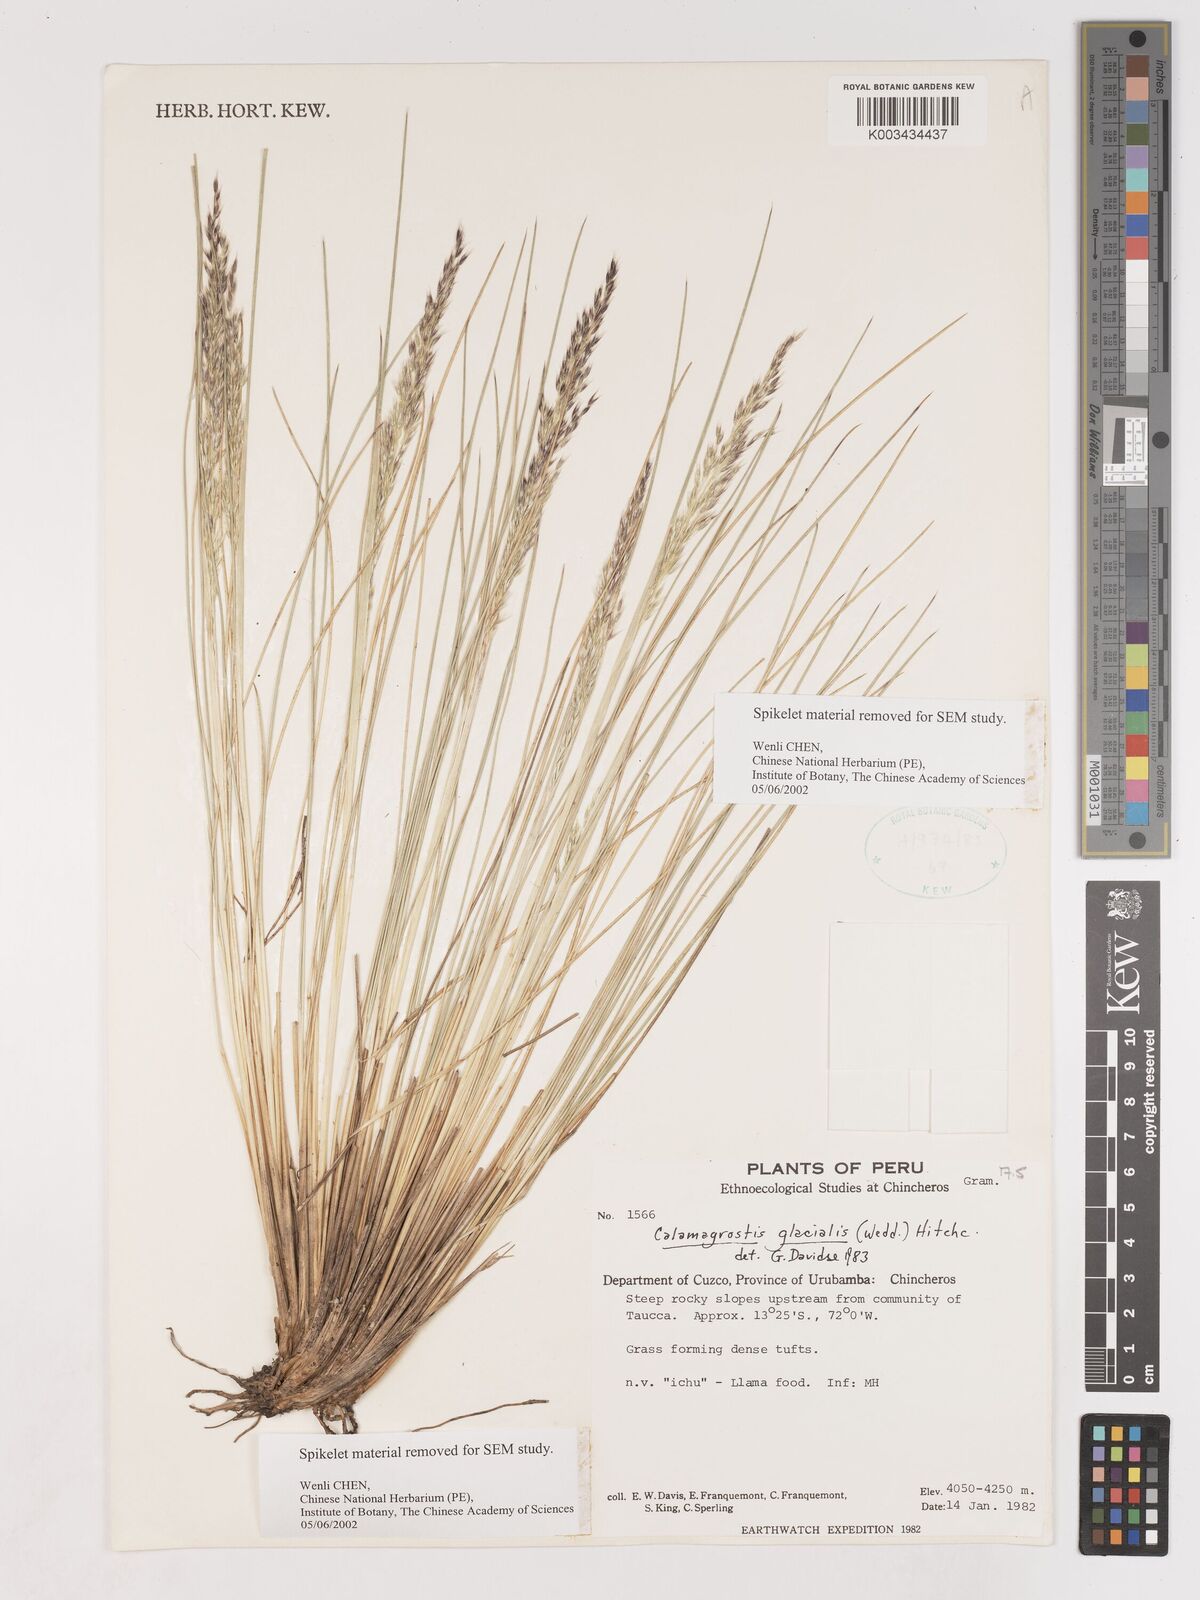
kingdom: Plantae
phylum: Tracheophyta
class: Liliopsida
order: Poales
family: Poaceae
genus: Cinnagrostis
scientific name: Cinnagrostis glacialis
